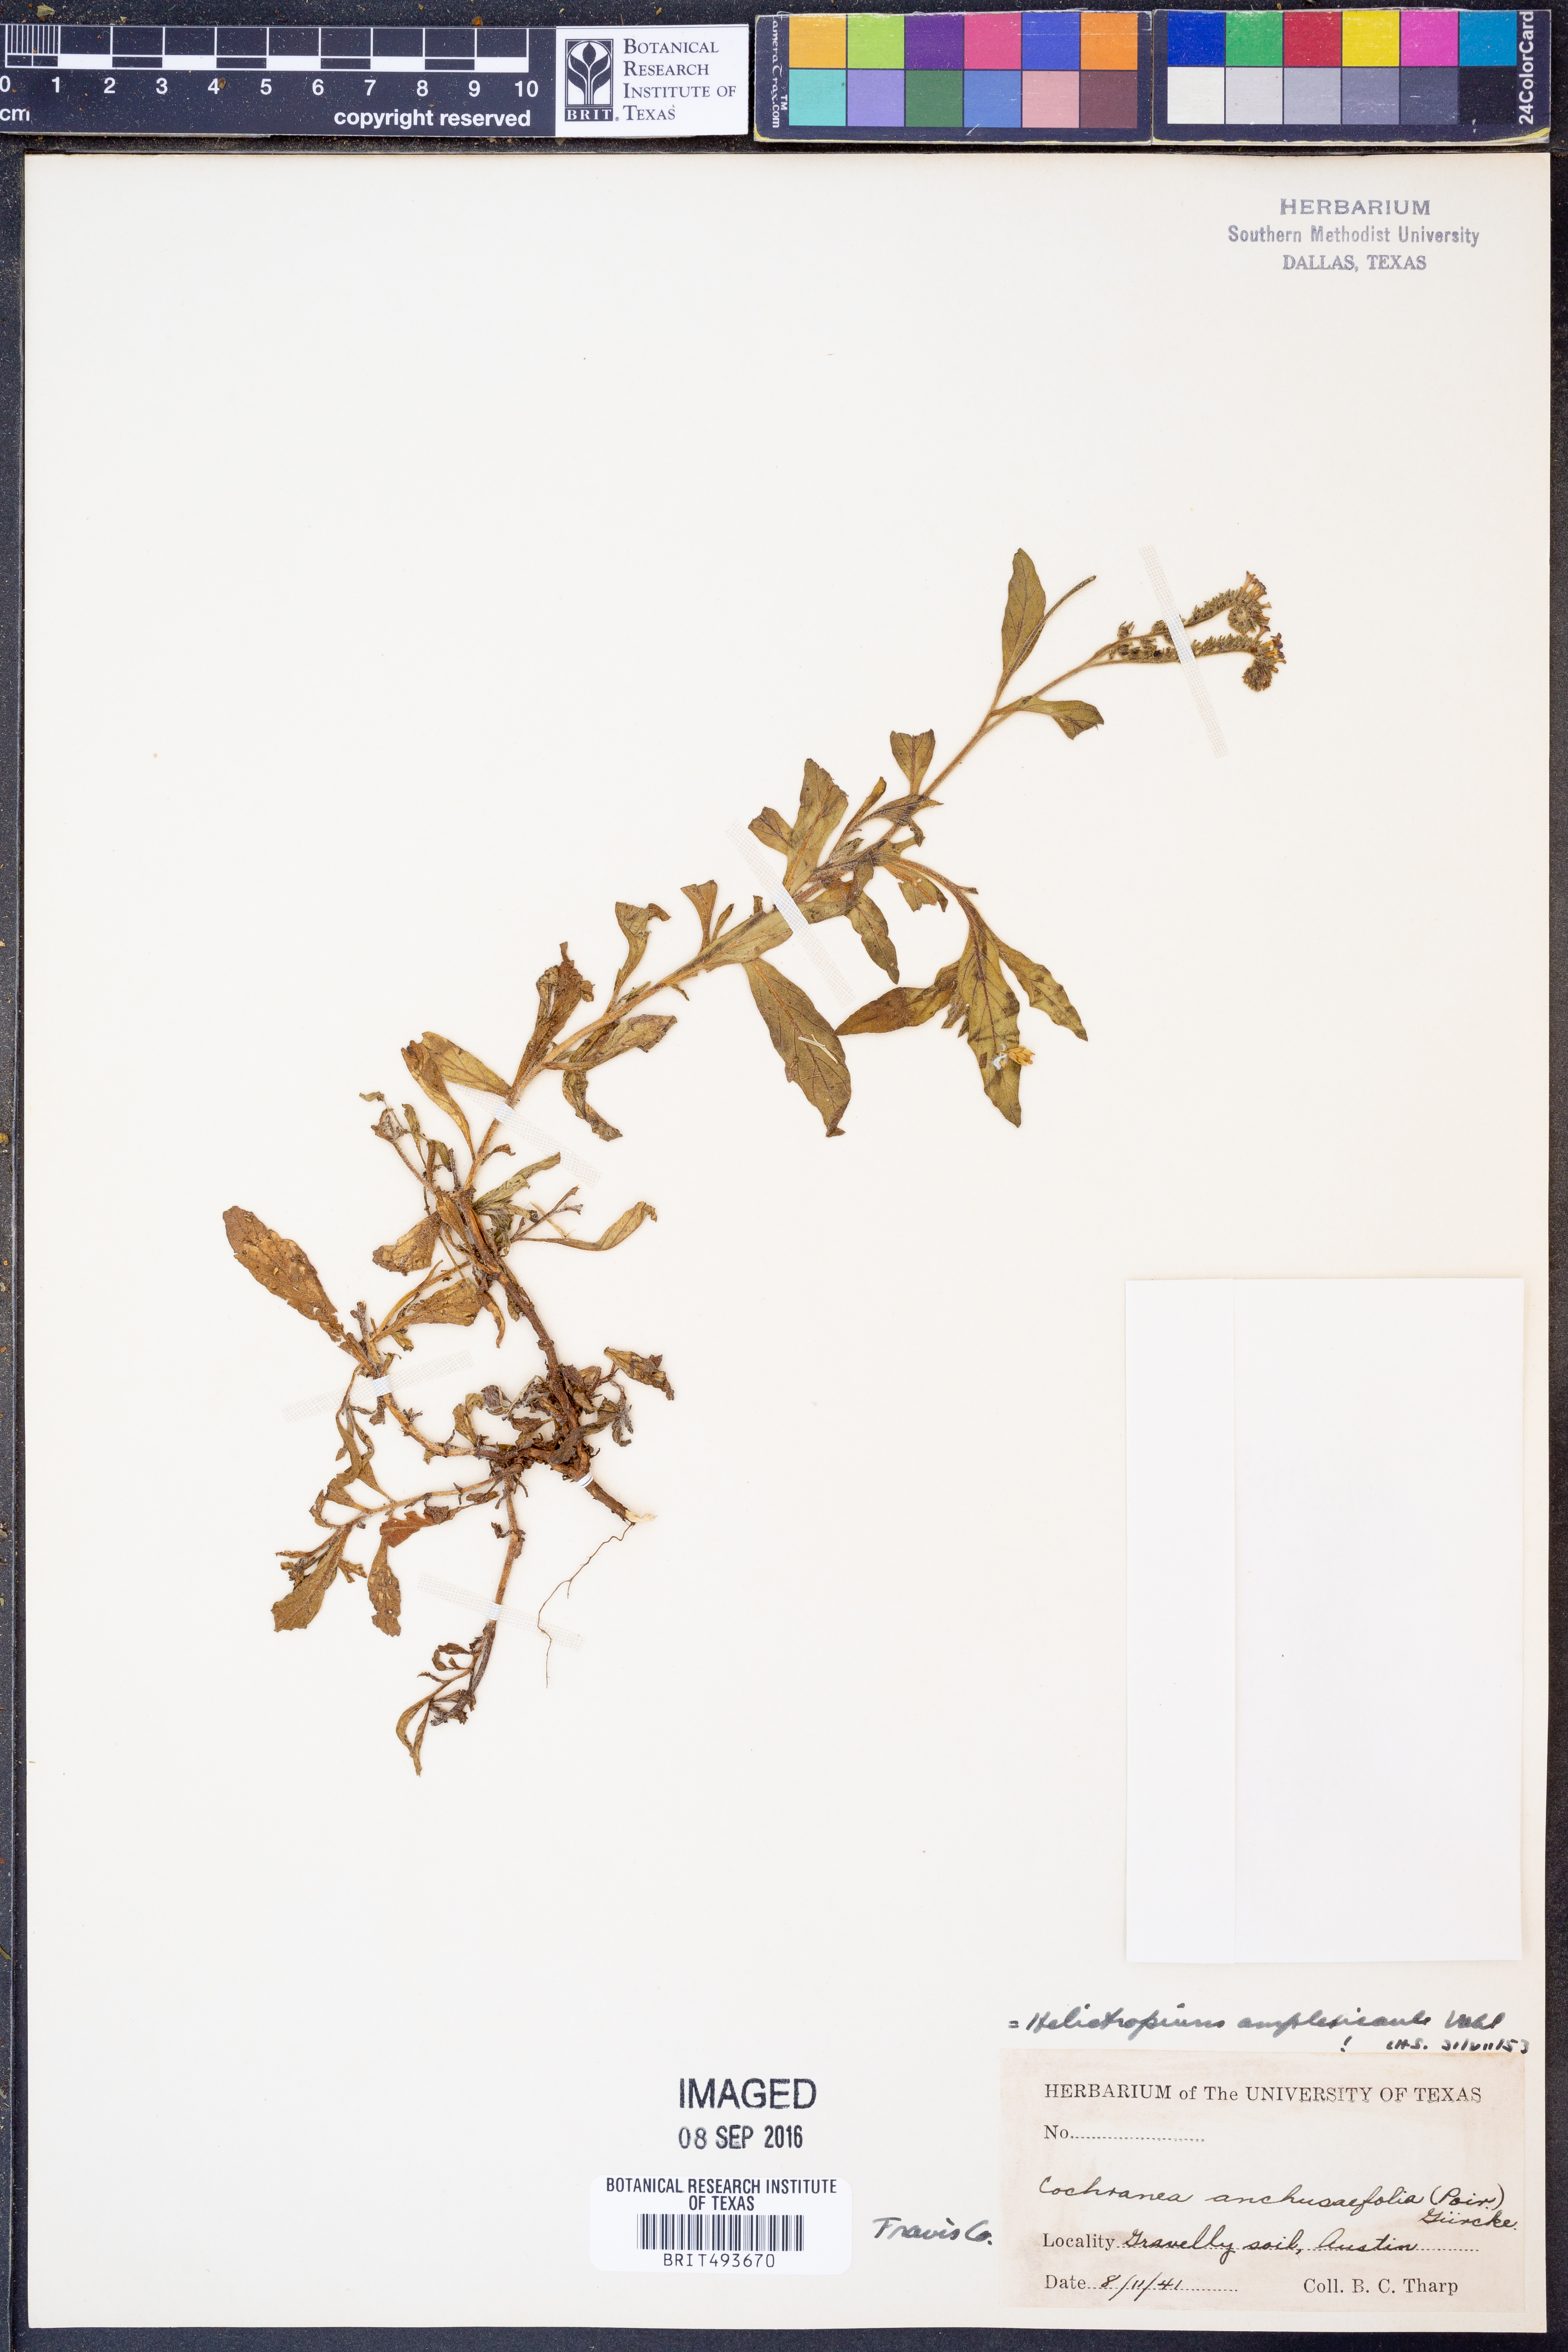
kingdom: Plantae
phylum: Tracheophyta
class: Magnoliopsida
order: Boraginales
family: Heliotropiaceae
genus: Heliotropium
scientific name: Heliotropium amplexicaule
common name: Clasping heliotrope
